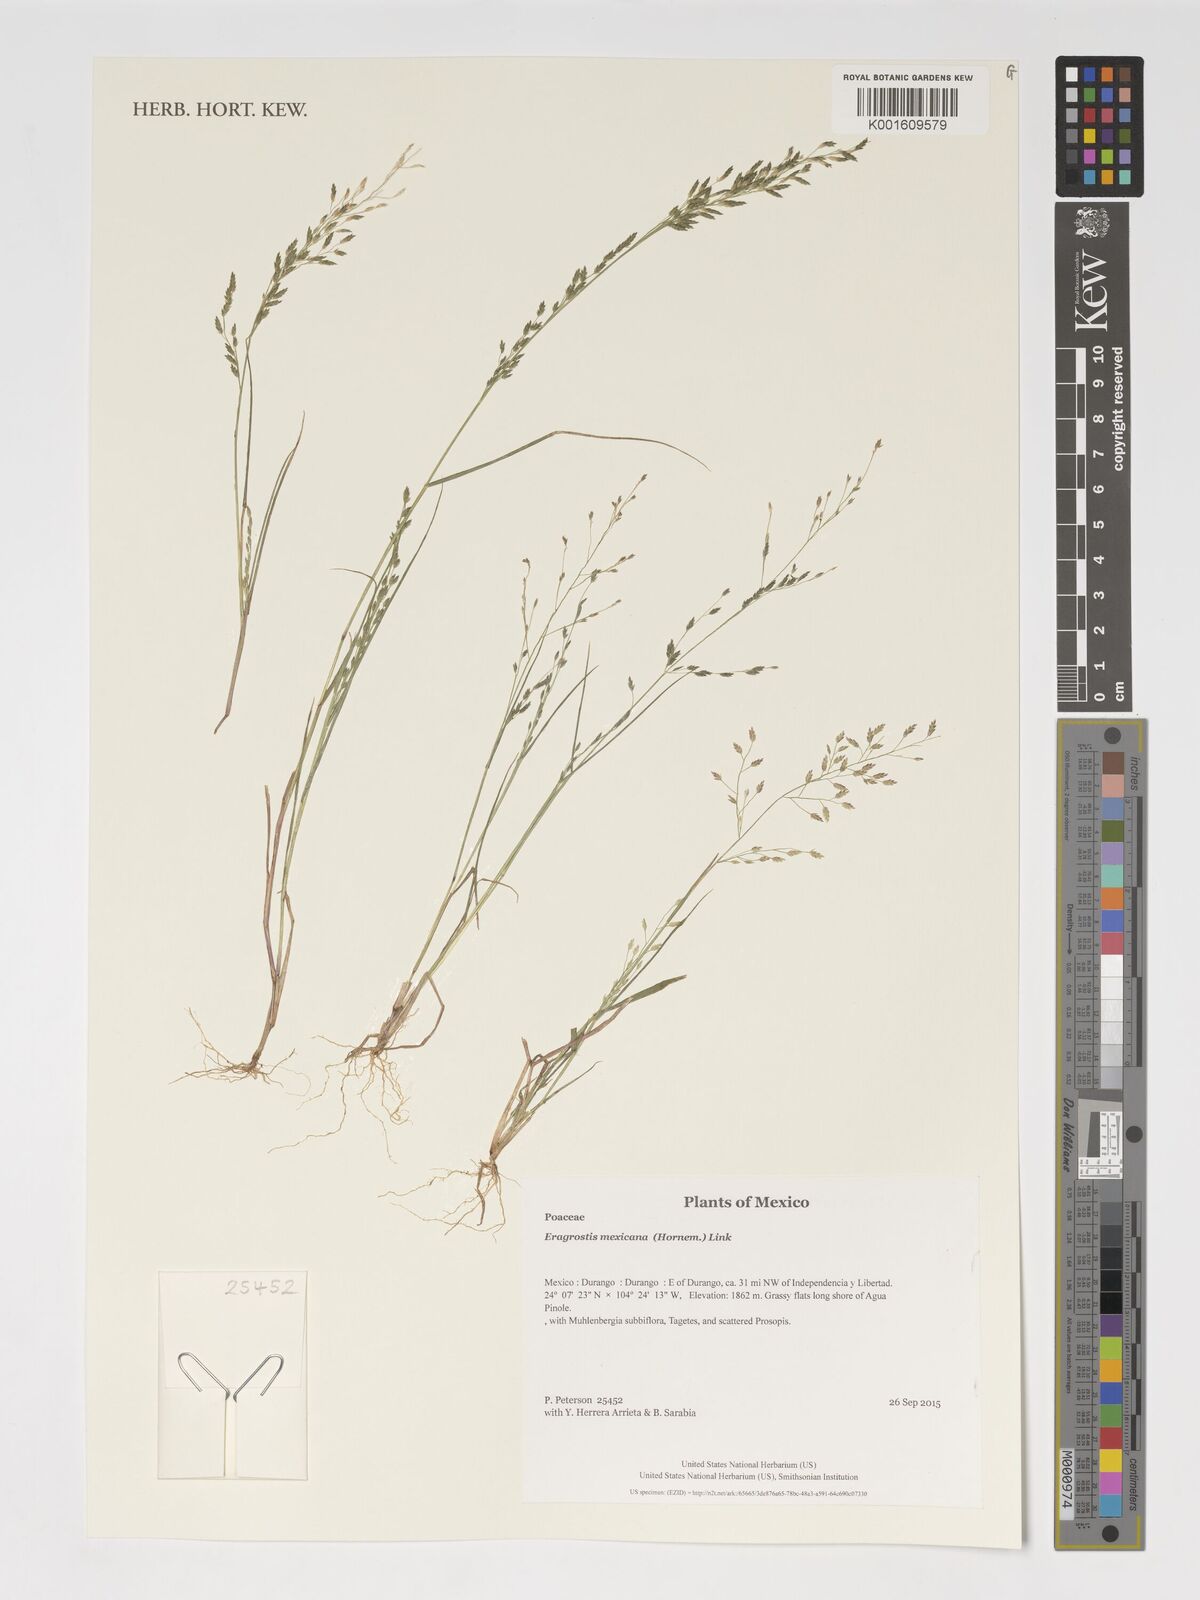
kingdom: Plantae
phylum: Tracheophyta
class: Liliopsida
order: Poales
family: Poaceae
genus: Eragrostis
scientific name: Eragrostis mexicana
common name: Mexican love grass
